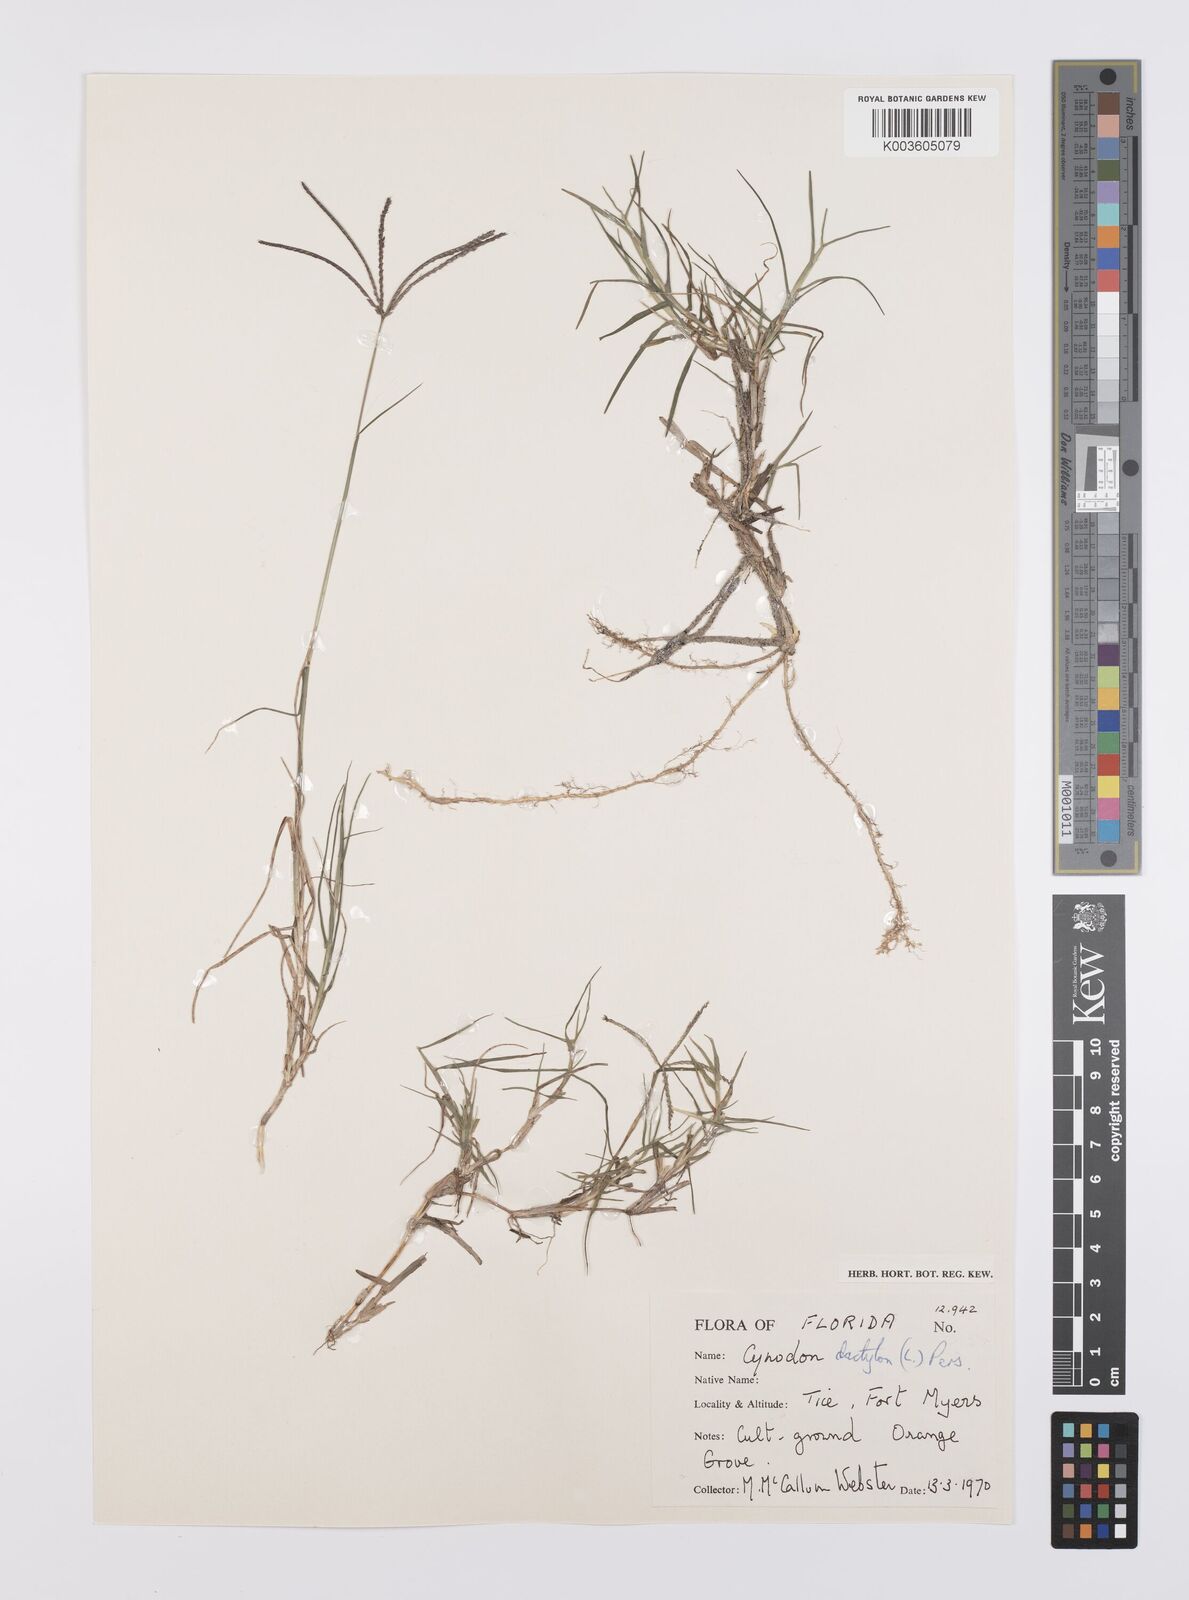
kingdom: Plantae
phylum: Tracheophyta
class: Liliopsida
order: Poales
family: Poaceae
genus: Cynodon
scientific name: Cynodon dactylon
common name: Bermuda grass
